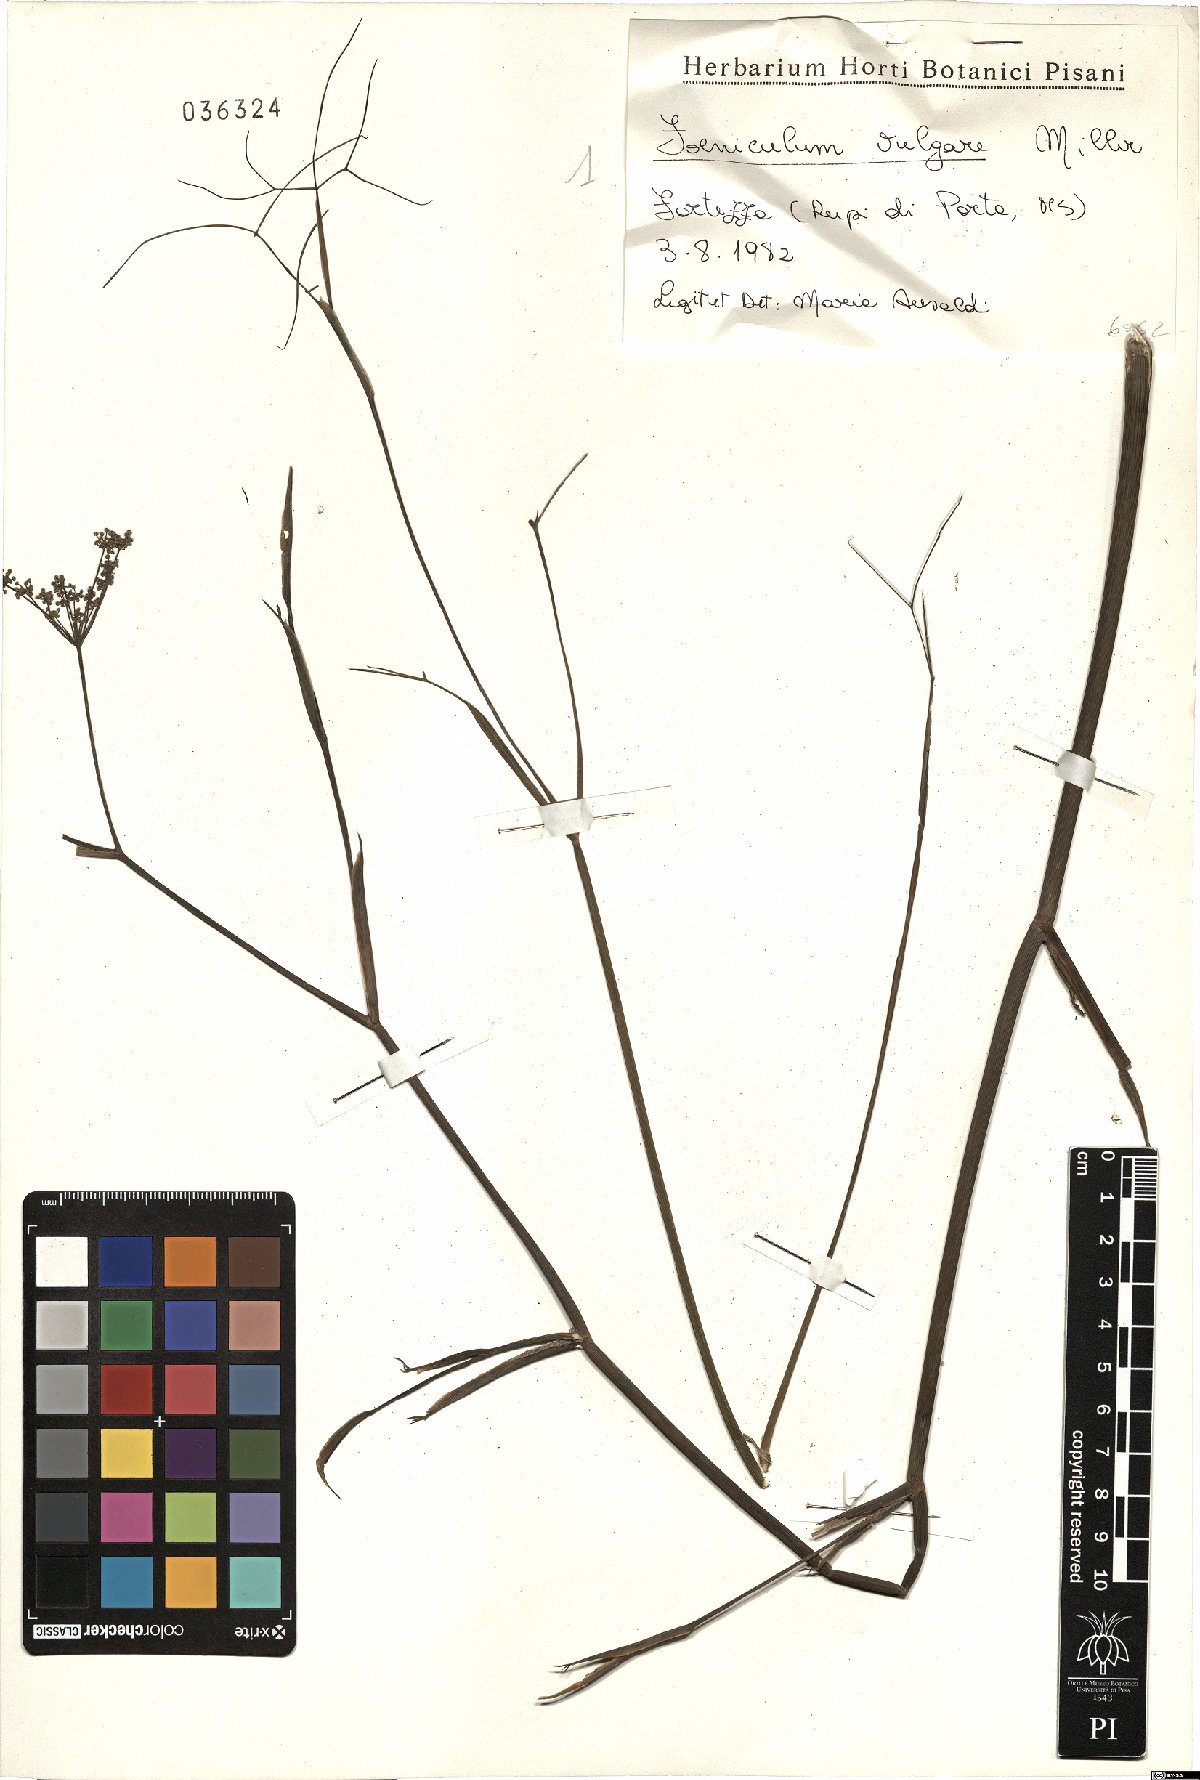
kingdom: Plantae
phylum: Tracheophyta
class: Magnoliopsida
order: Apiales
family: Apiaceae
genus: Foeniculum
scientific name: Foeniculum vulgare
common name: Fennel
